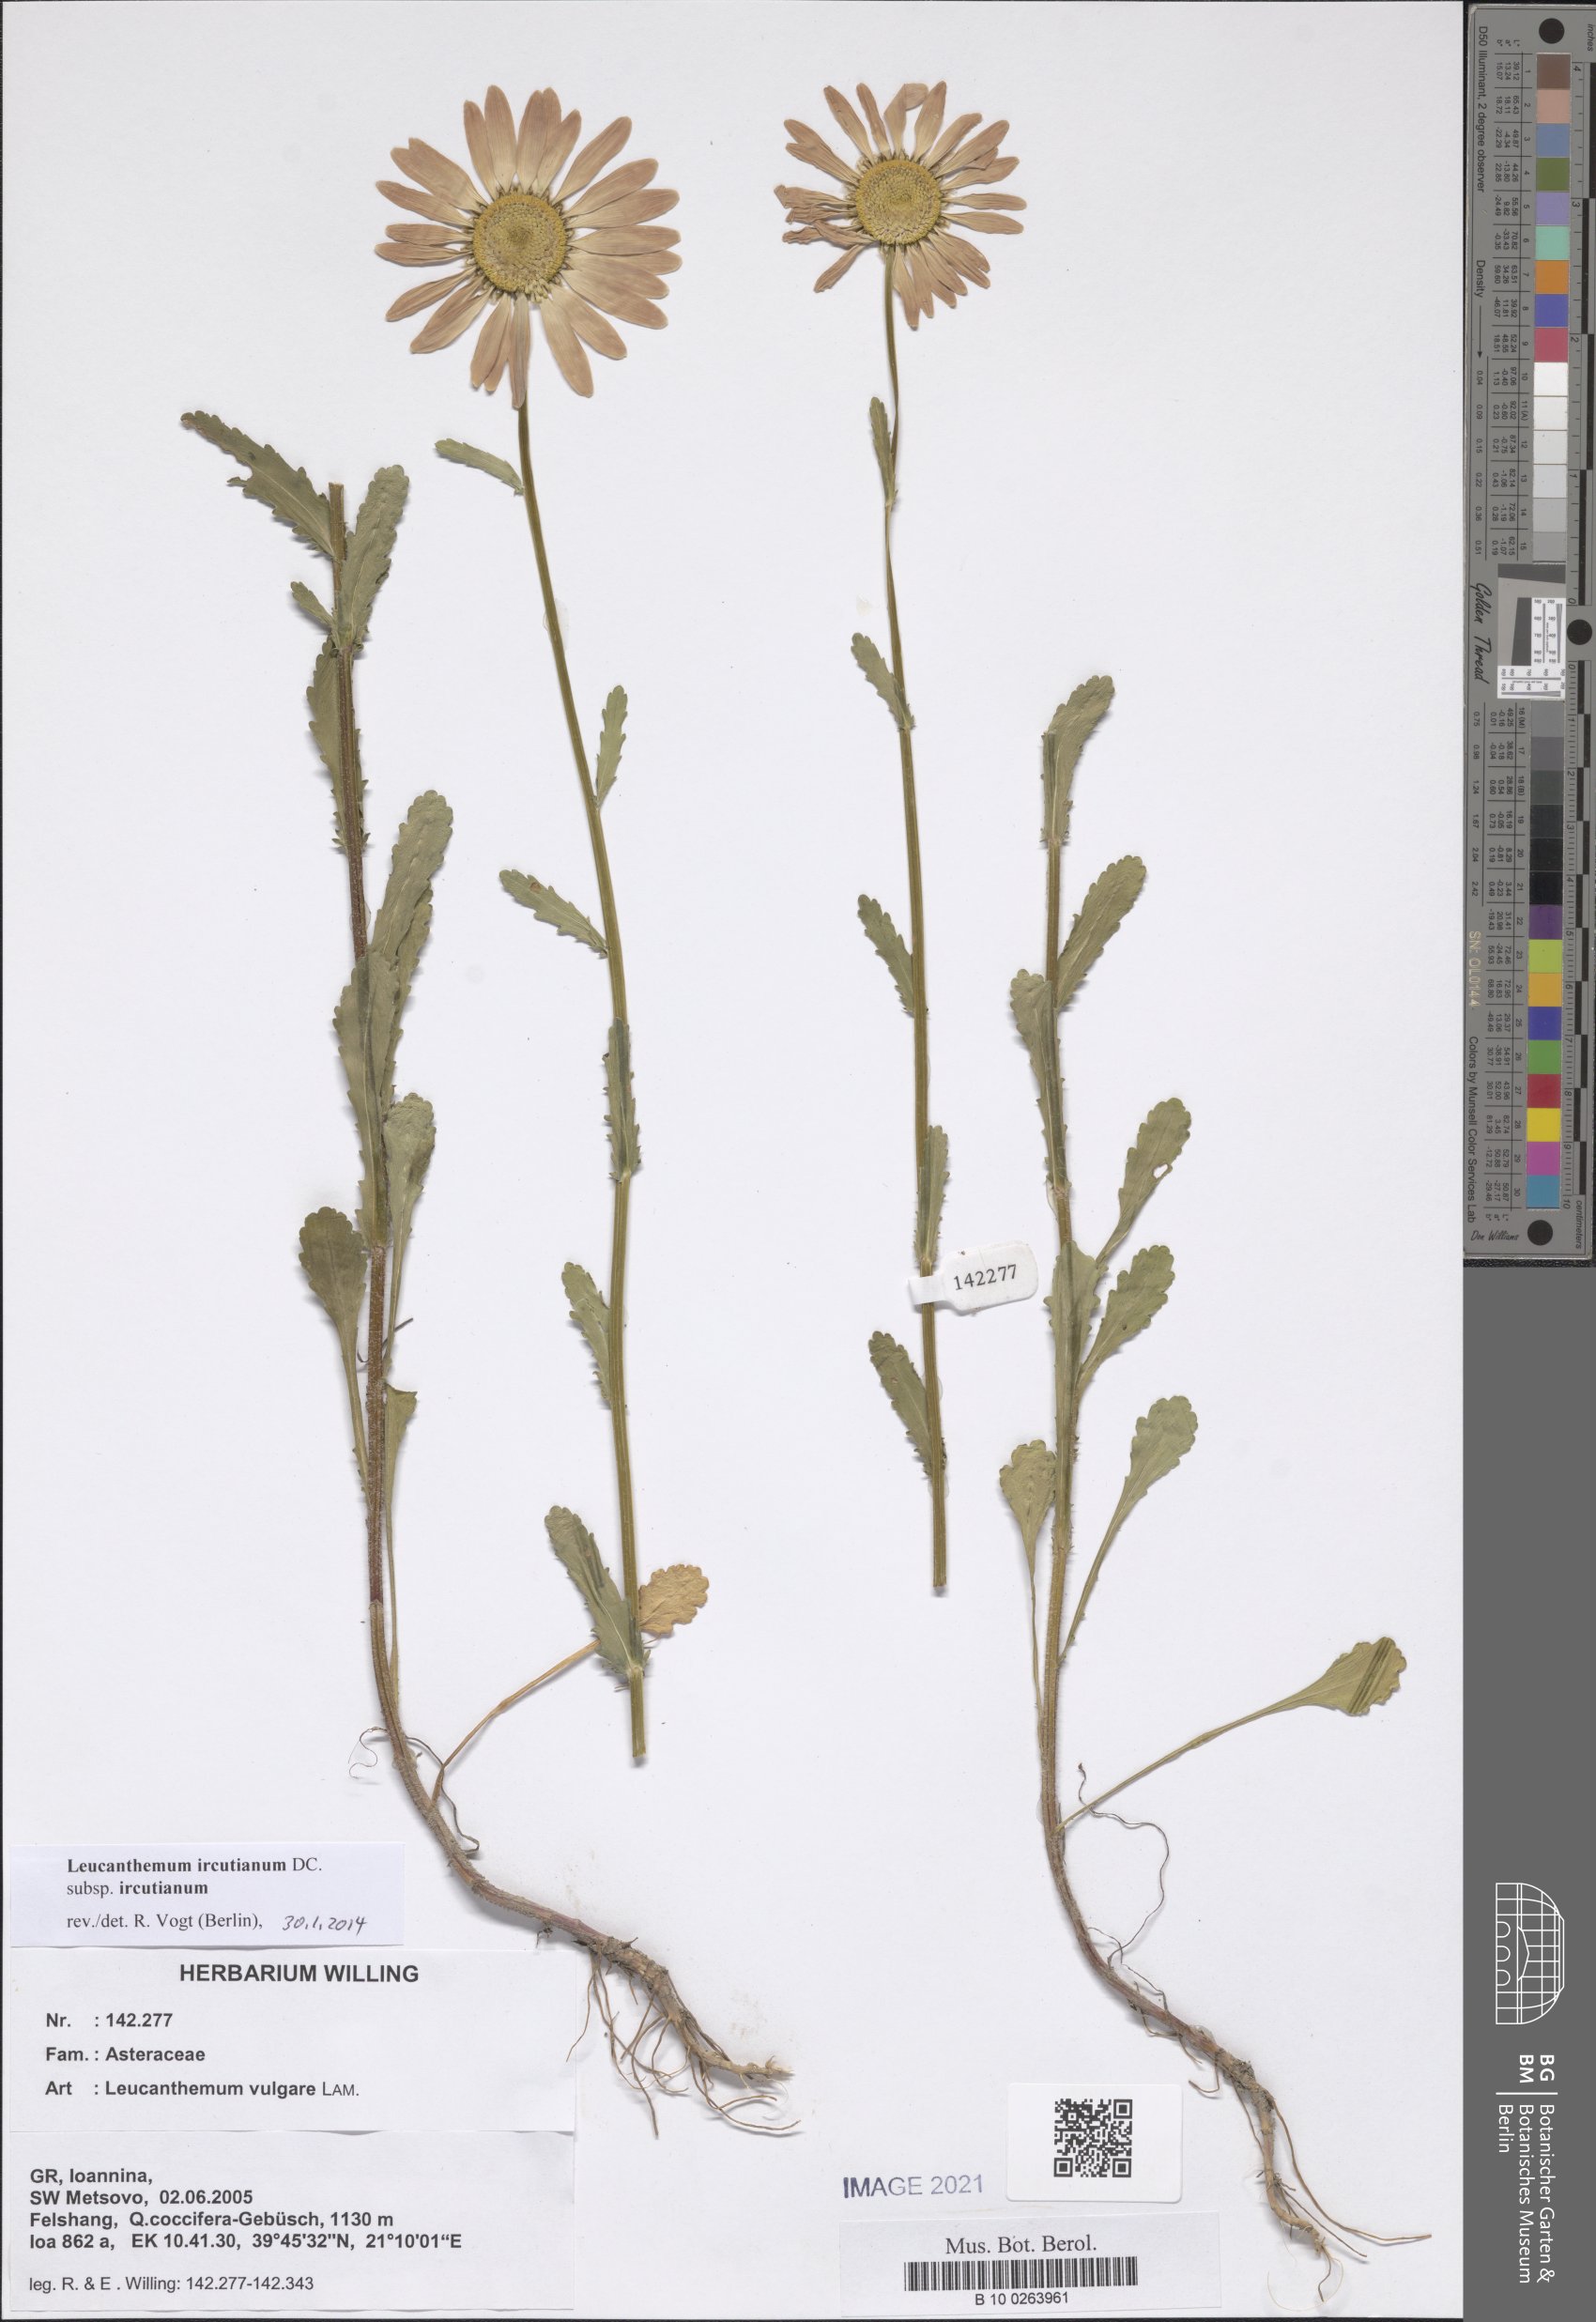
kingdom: Plantae
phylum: Tracheophyta
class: Magnoliopsida
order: Asterales
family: Asteraceae
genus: Leucanthemum
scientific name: Leucanthemum ircutianum
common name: Daisy
